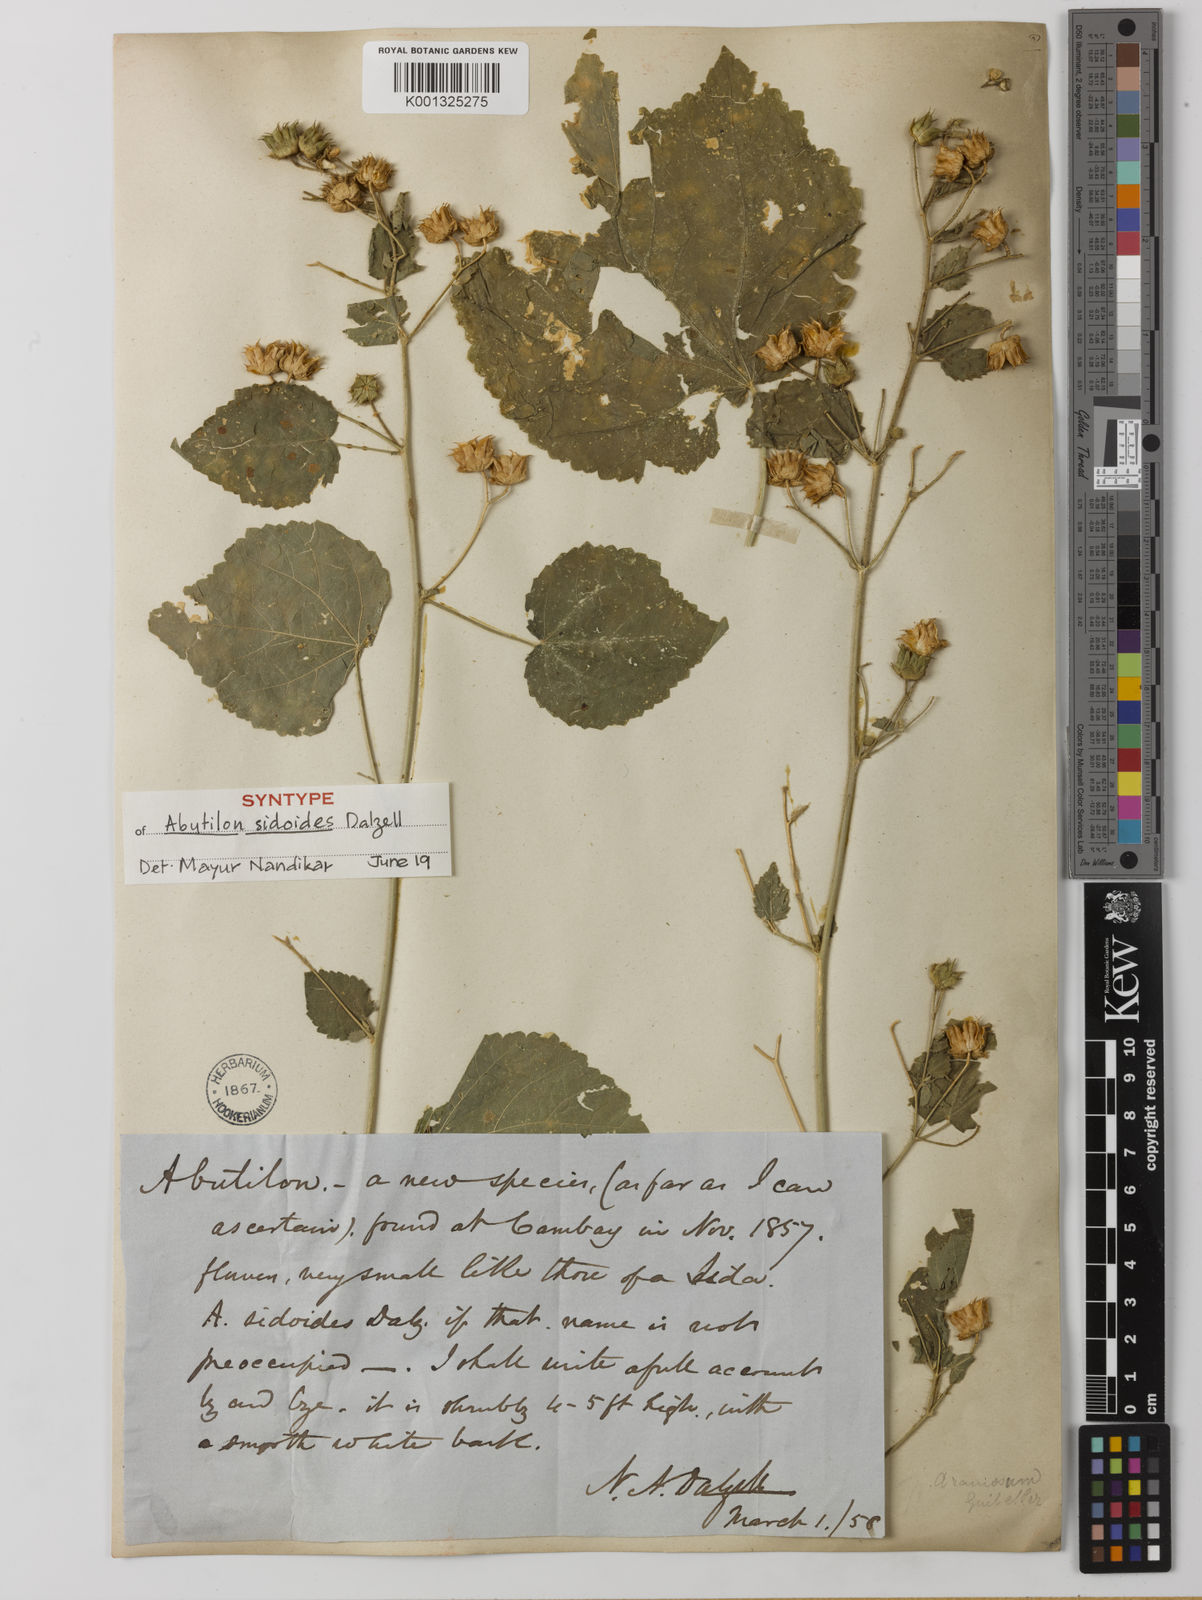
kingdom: Plantae
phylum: Tracheophyta
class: Magnoliopsida
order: Malvales
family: Malvaceae
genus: Abutilon
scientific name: Abutilon ramosum
